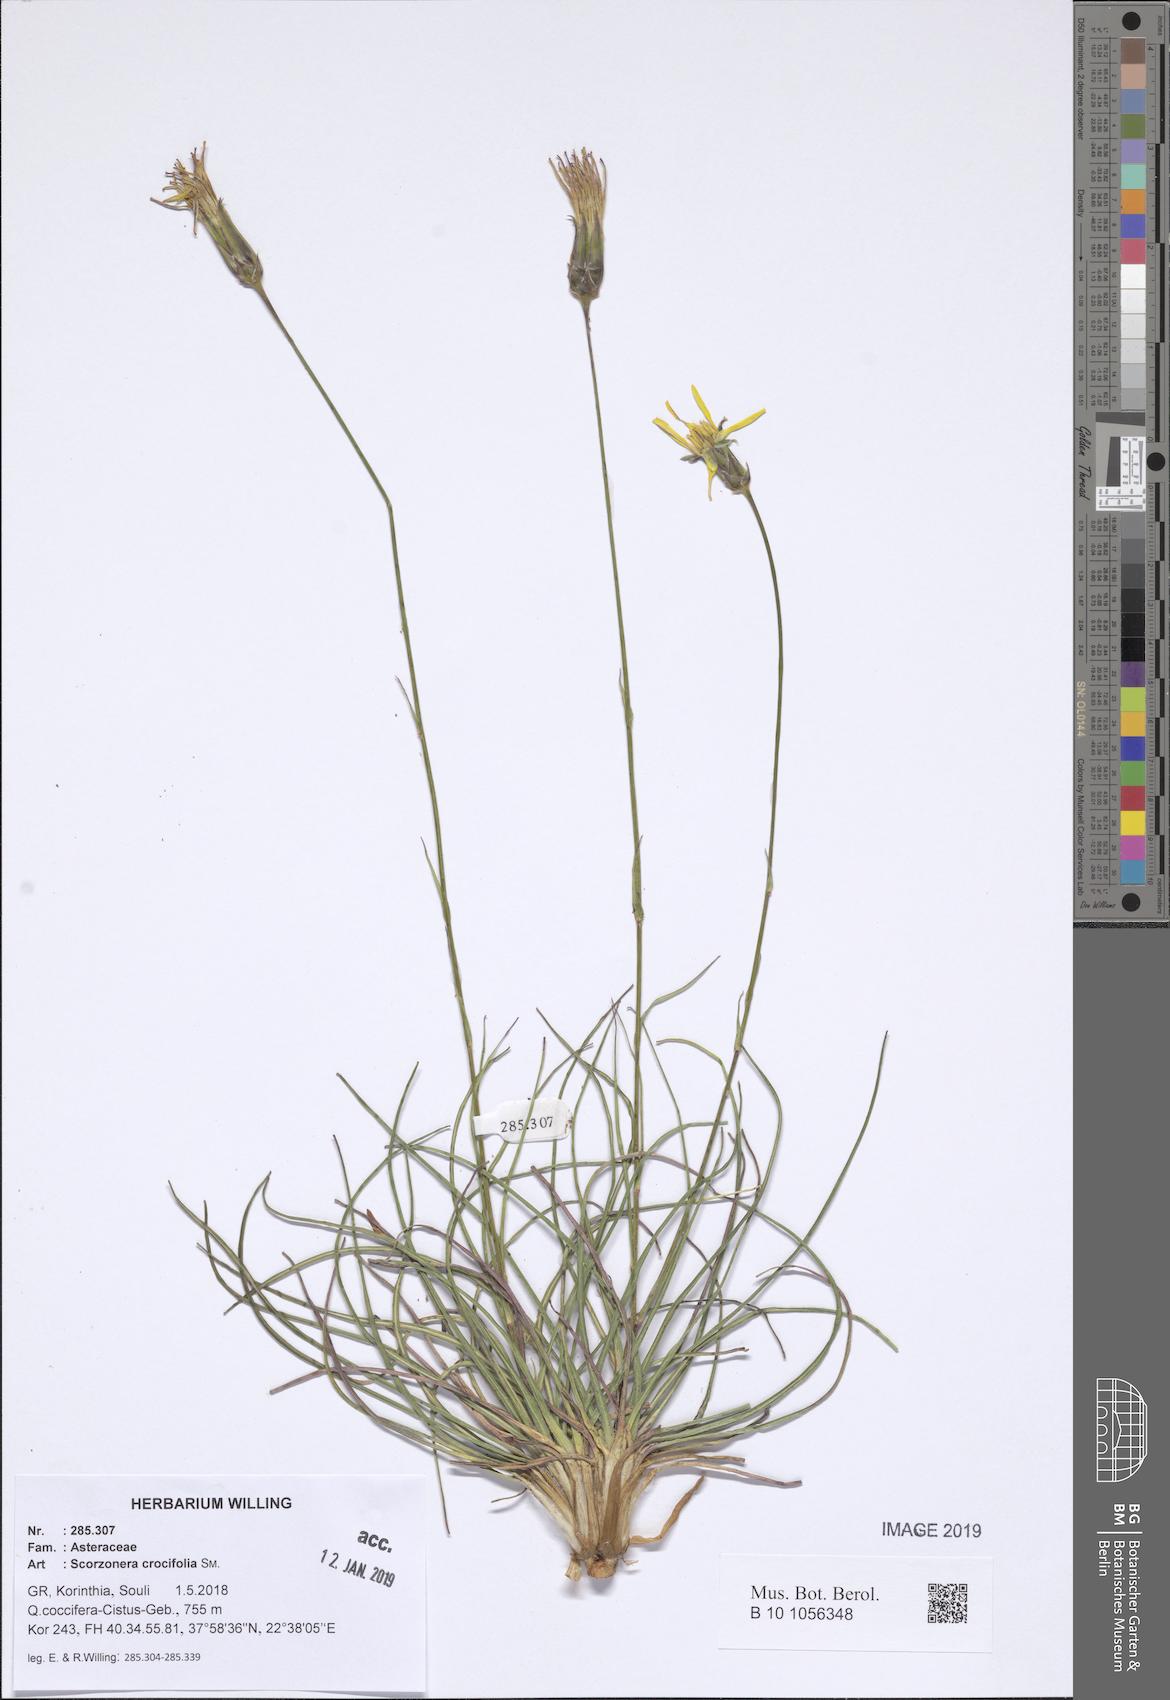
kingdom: Plantae
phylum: Tracheophyta
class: Magnoliopsida
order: Asterales
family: Asteraceae
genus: Pseudopodospermum
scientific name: Pseudopodospermum crocifolium
